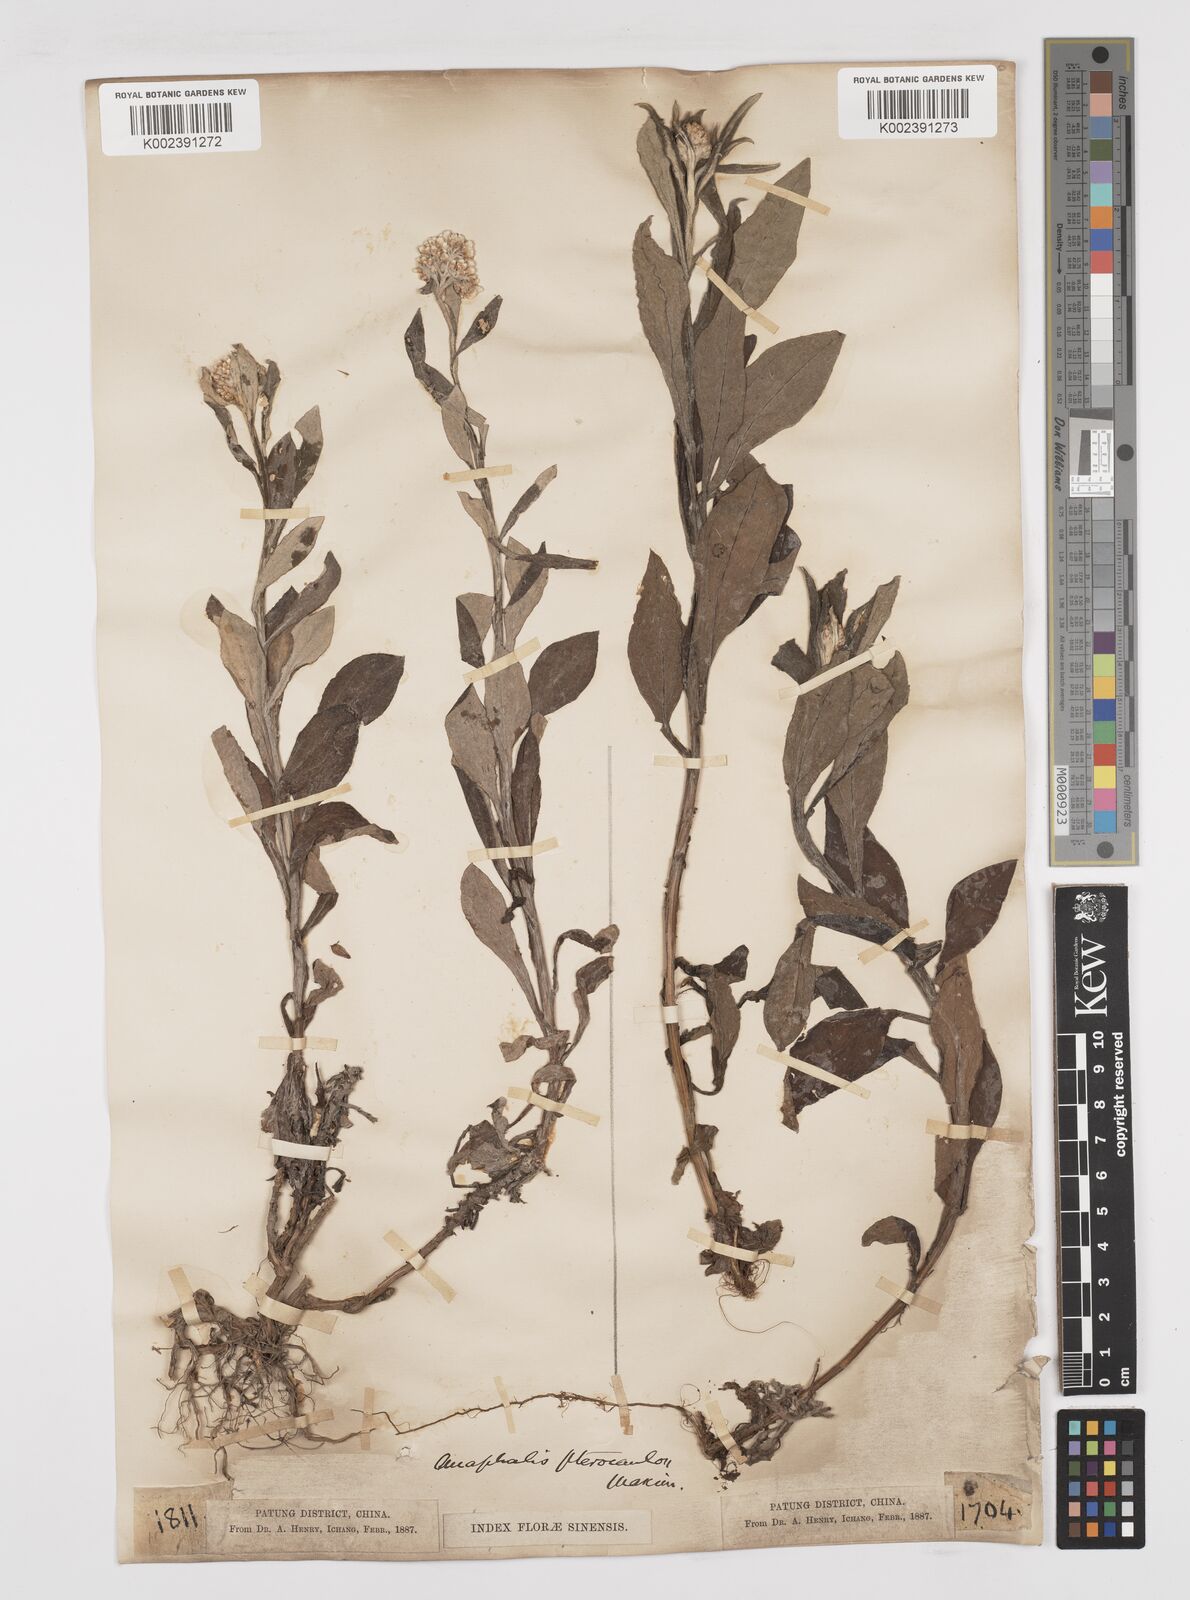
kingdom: Plantae
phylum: Tracheophyta
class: Magnoliopsida
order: Asterales
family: Asteraceae
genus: Anaphalis
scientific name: Anaphalis sinica
